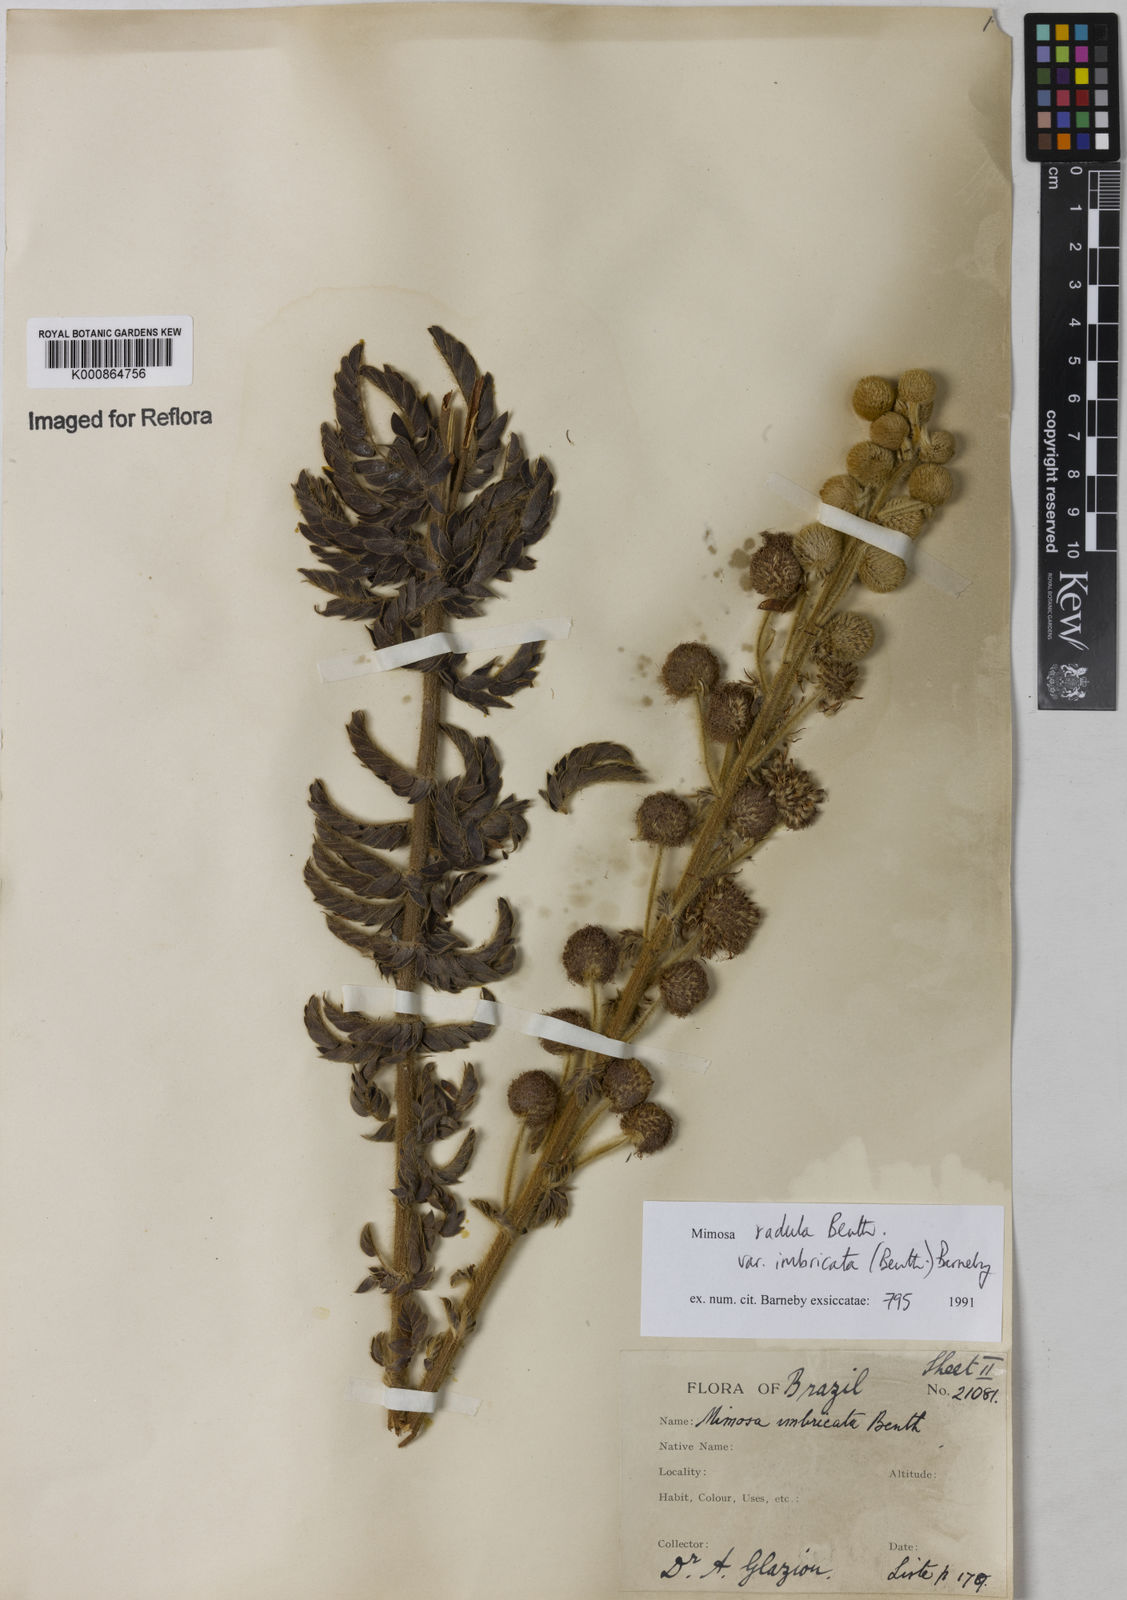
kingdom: Plantae
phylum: Tracheophyta
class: Magnoliopsida
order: Fabales
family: Fabaceae
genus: Mimosa
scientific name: Mimosa radula
